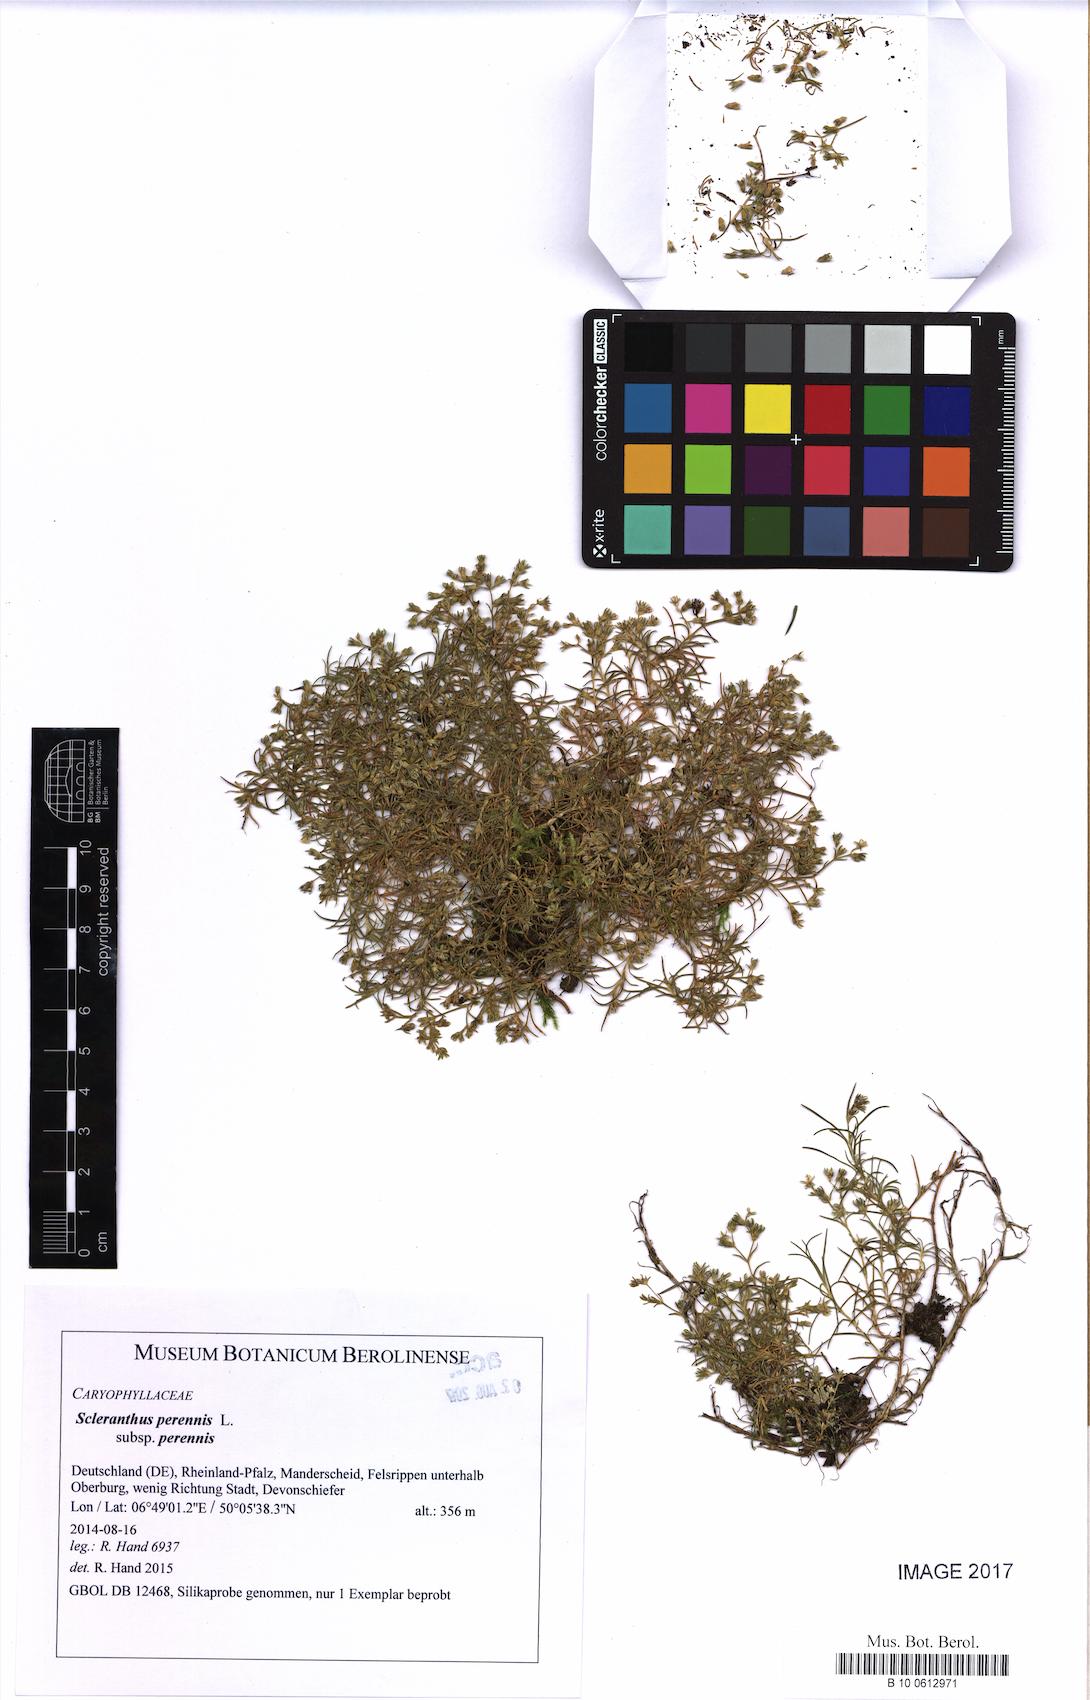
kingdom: Plantae
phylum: Tracheophyta
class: Magnoliopsida
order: Caryophyllales
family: Caryophyllaceae
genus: Scleranthus
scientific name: Scleranthus perennis
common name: Perennial knawel
